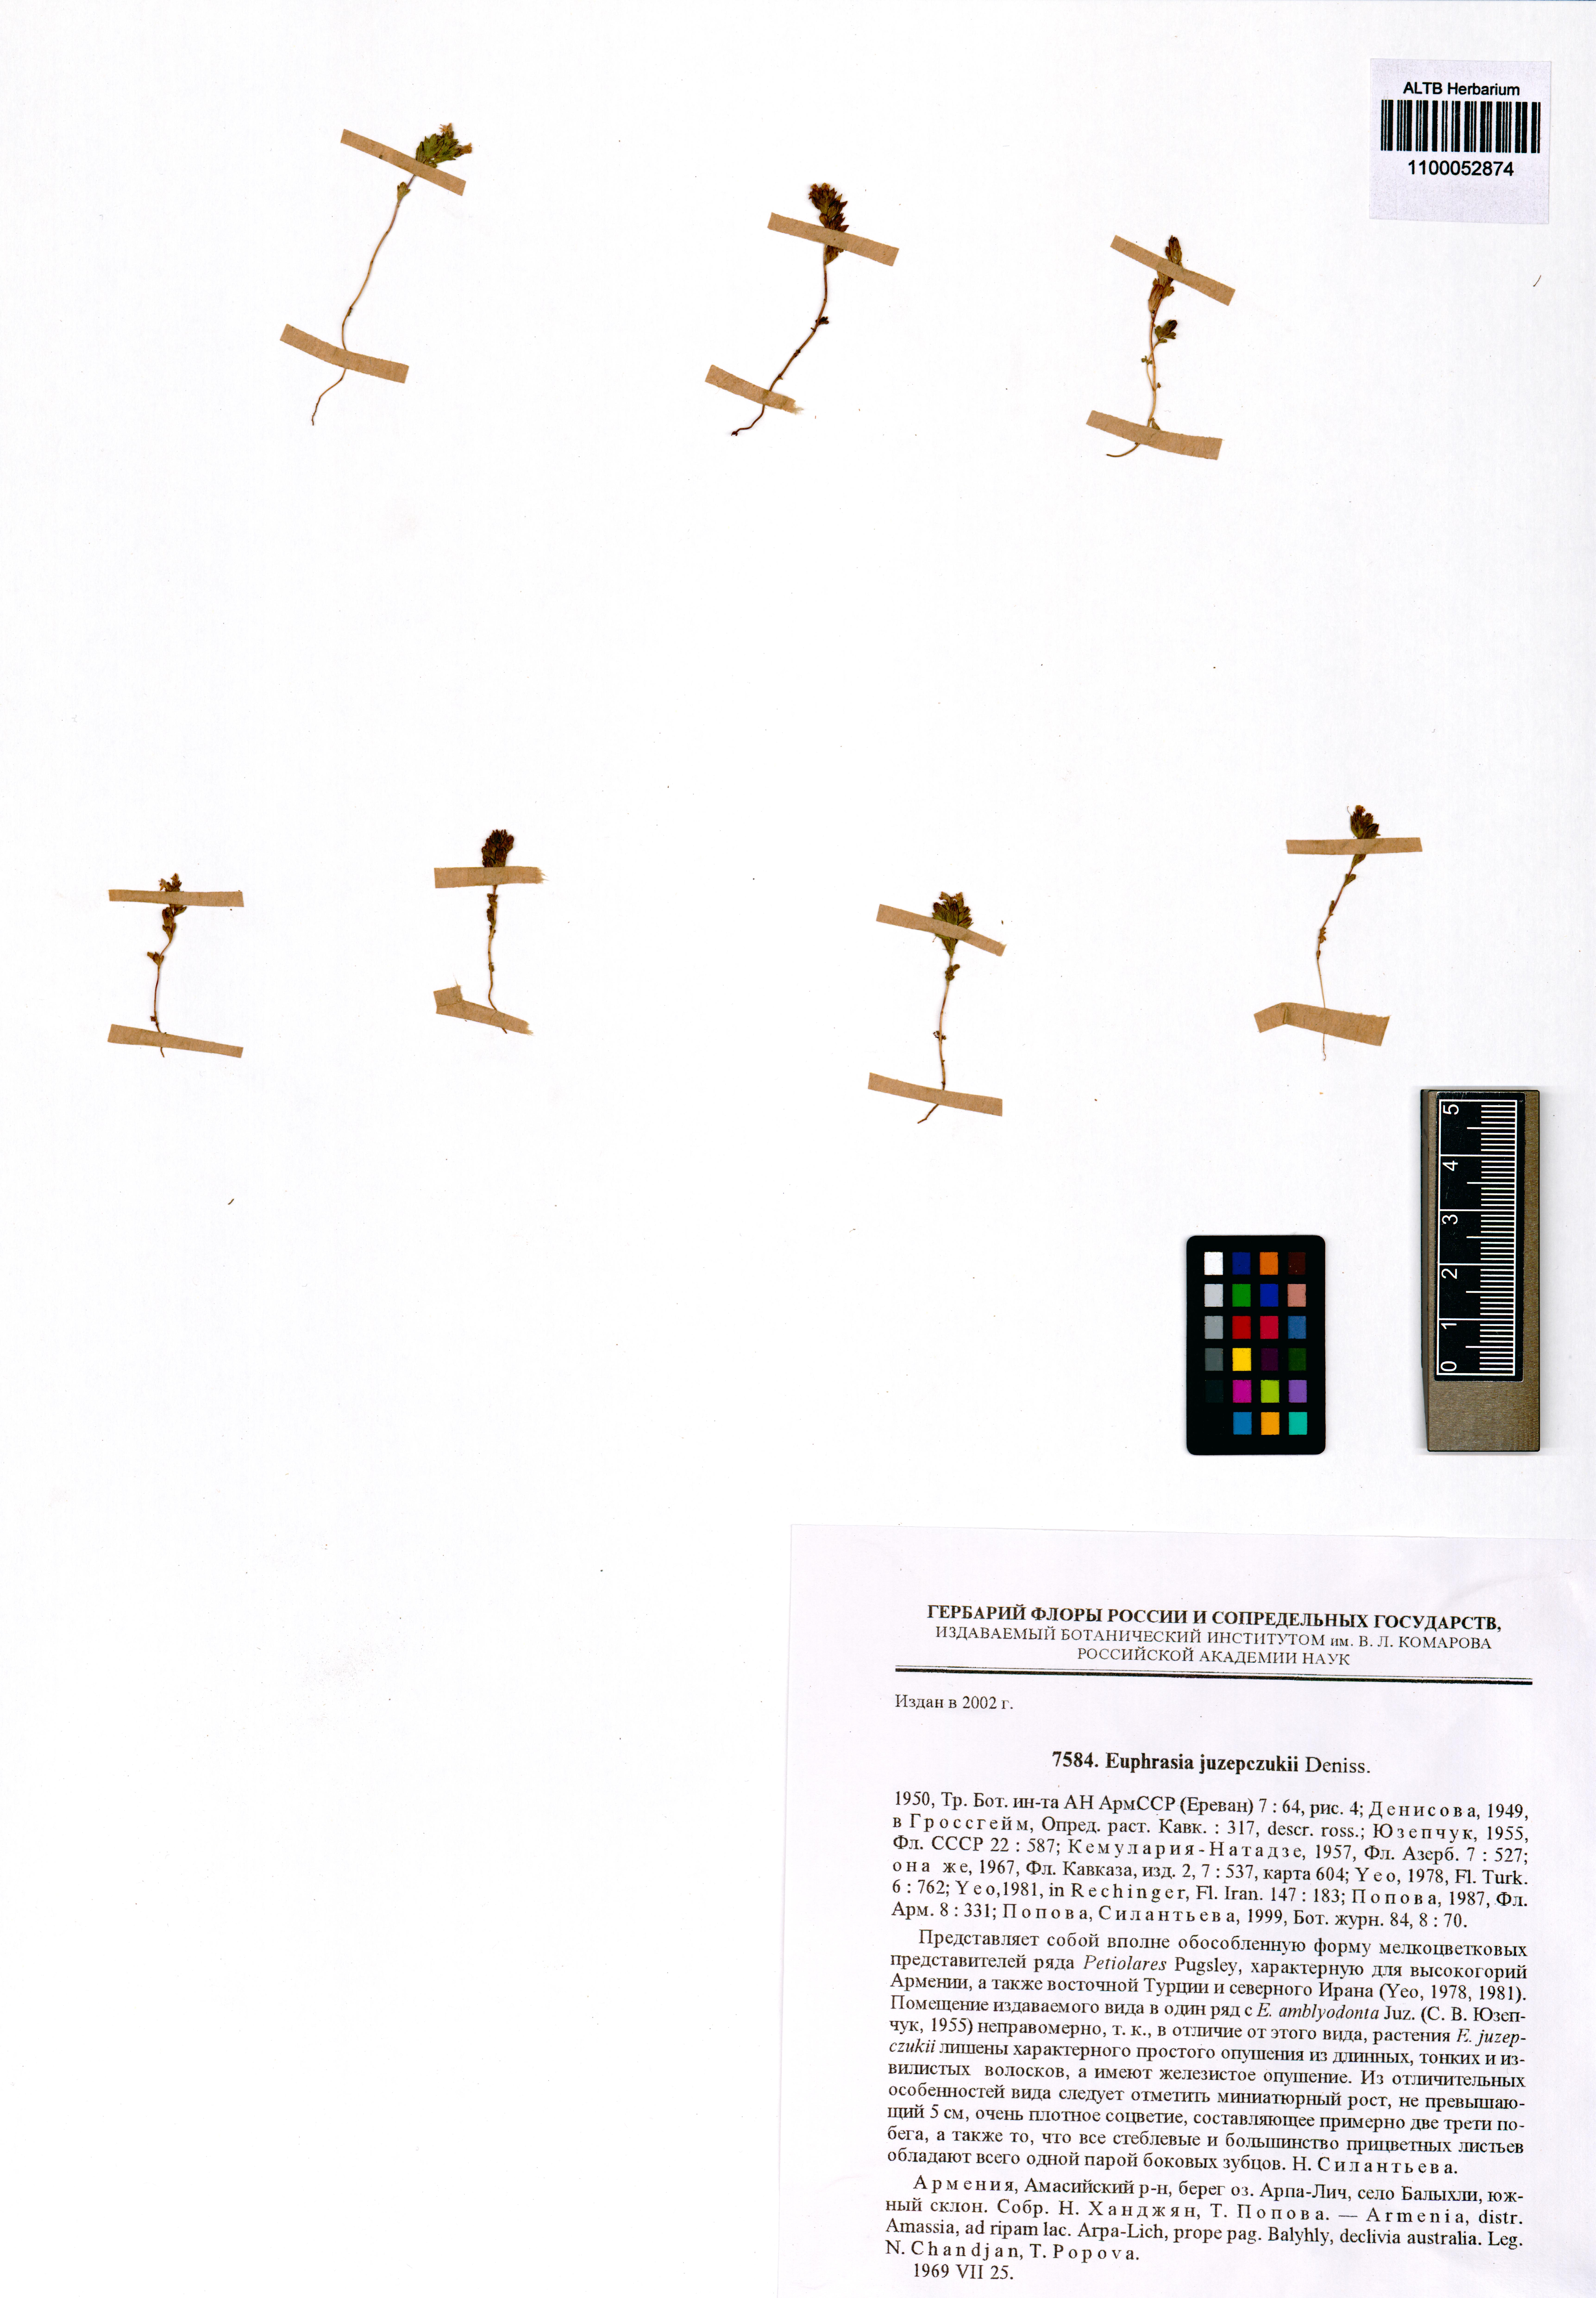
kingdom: Plantae
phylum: Tracheophyta
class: Magnoliopsida
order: Lamiales
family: Orobanchaceae
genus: Euphrasia
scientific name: Euphrasia juzepczukii
